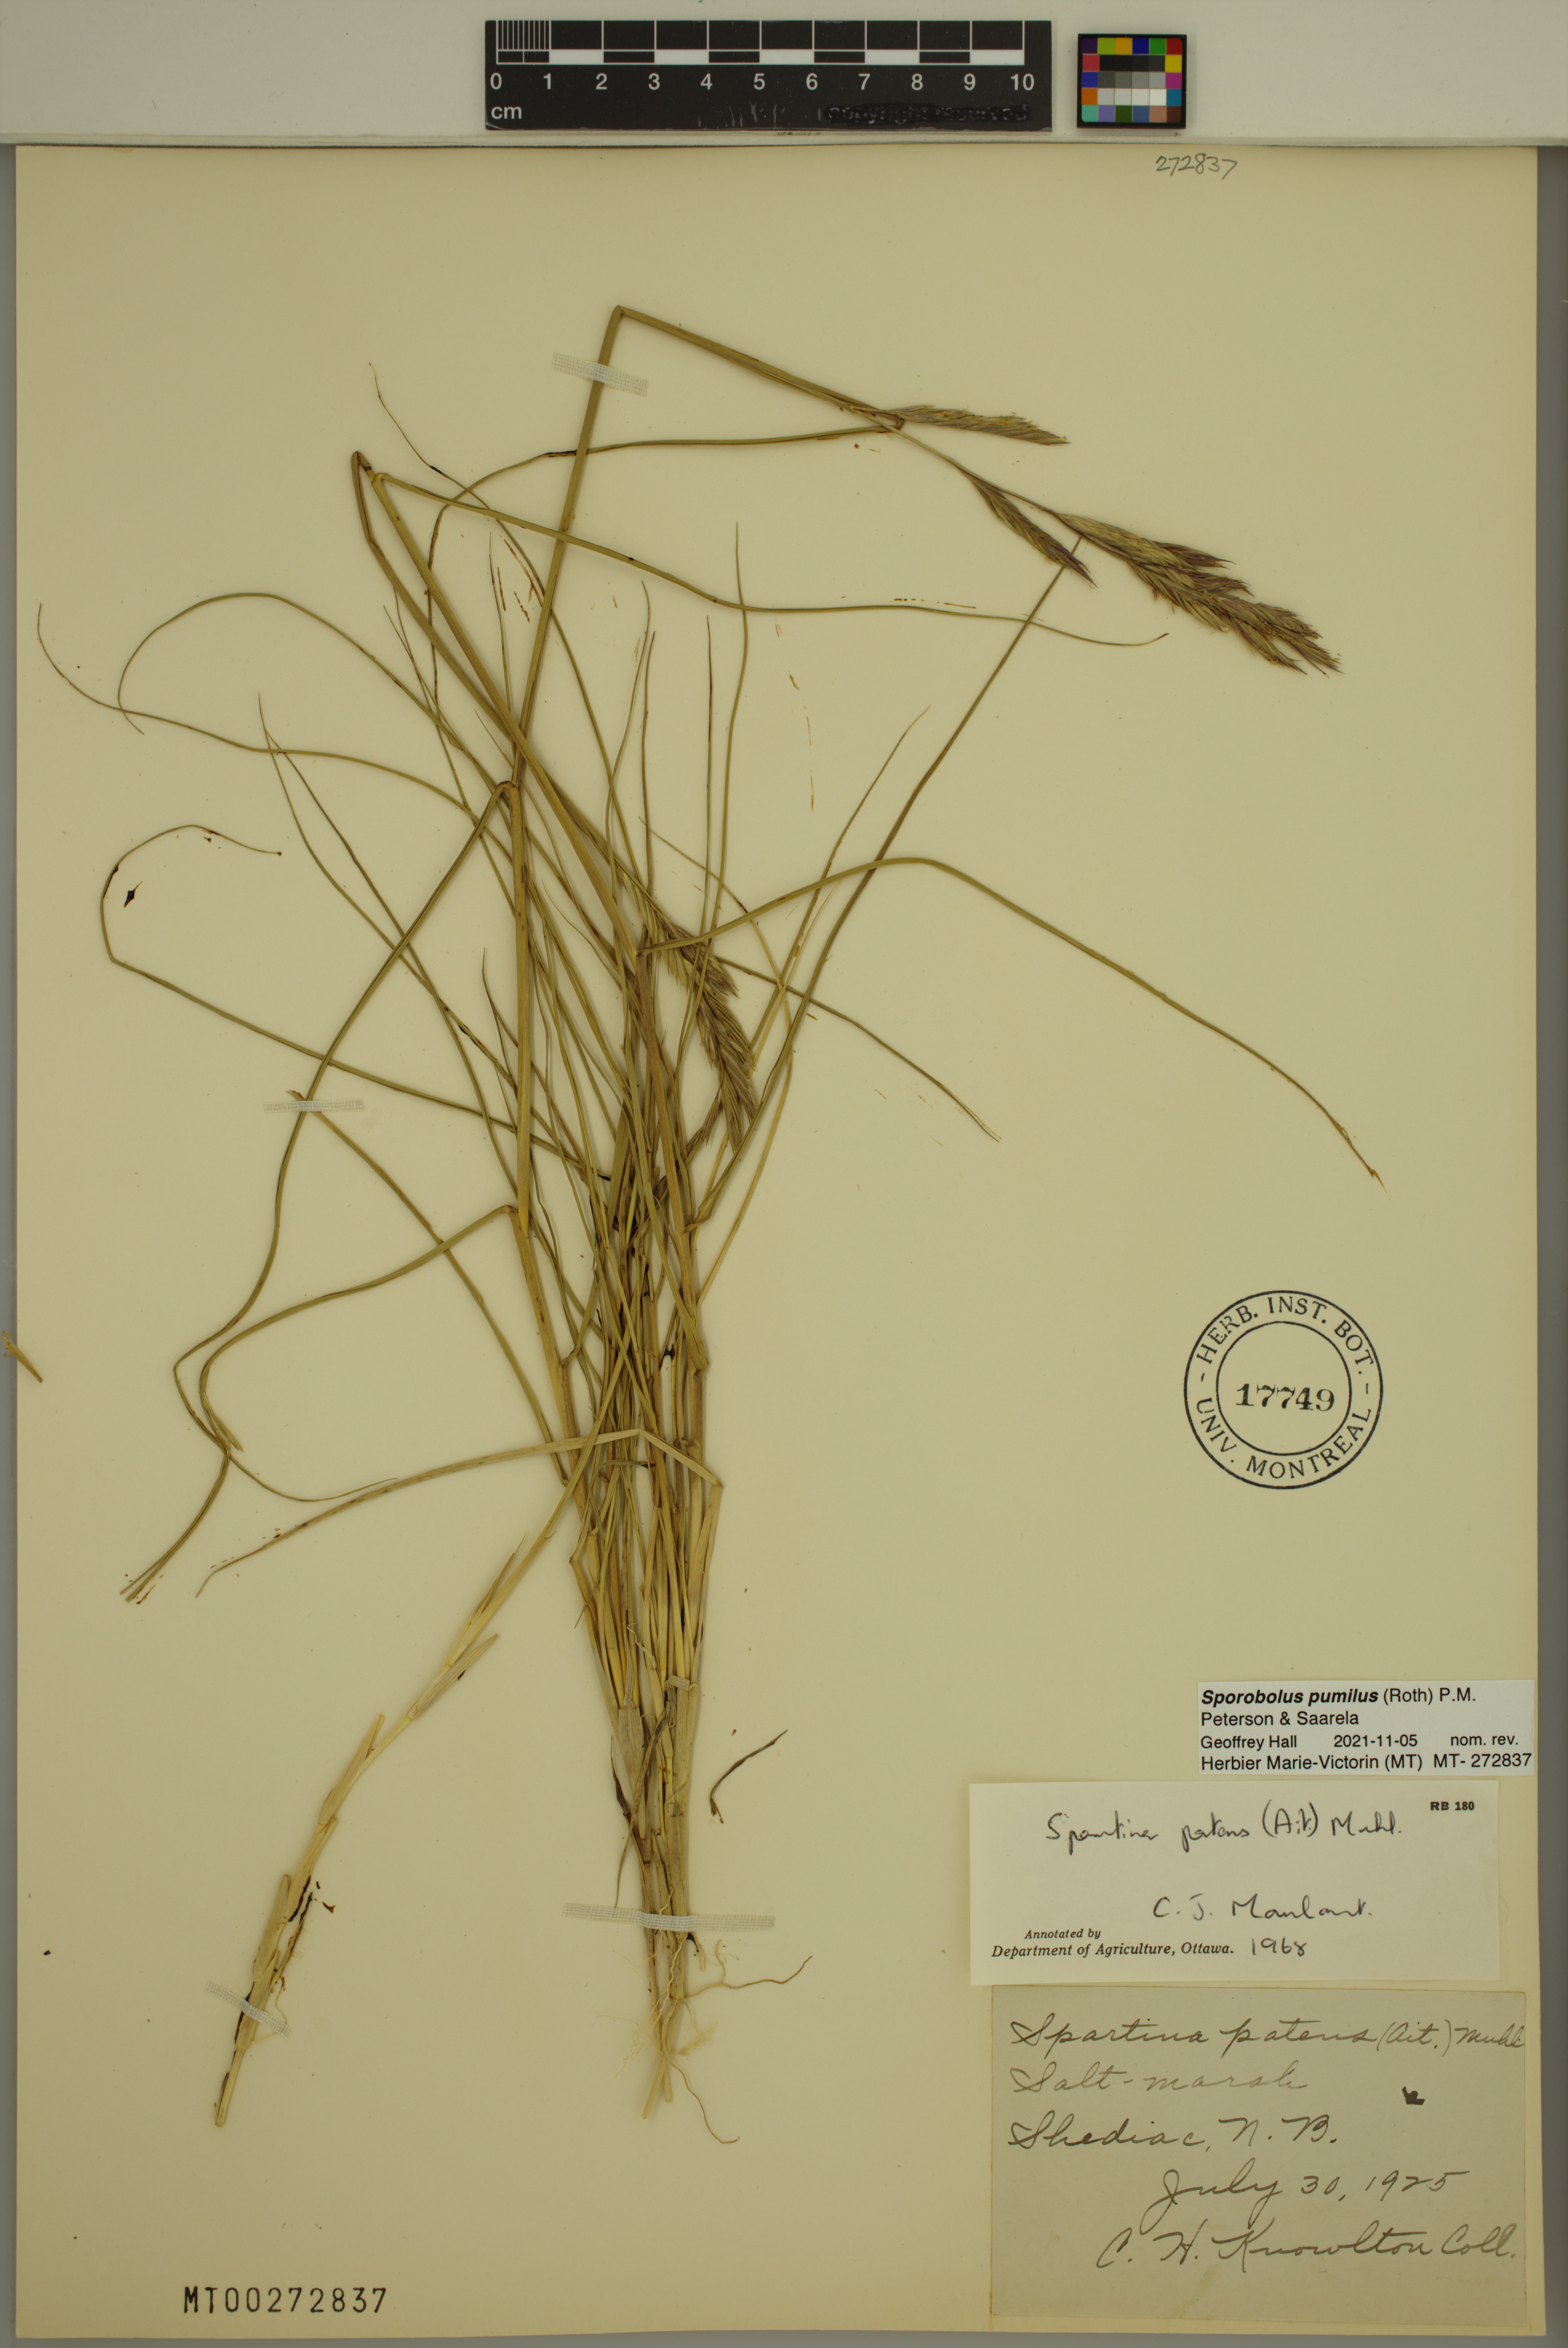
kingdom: Plantae
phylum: Tracheophyta
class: Liliopsida
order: Poales
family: Poaceae
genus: Sporobolus
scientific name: Sporobolus pumilus
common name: Highwater grass
